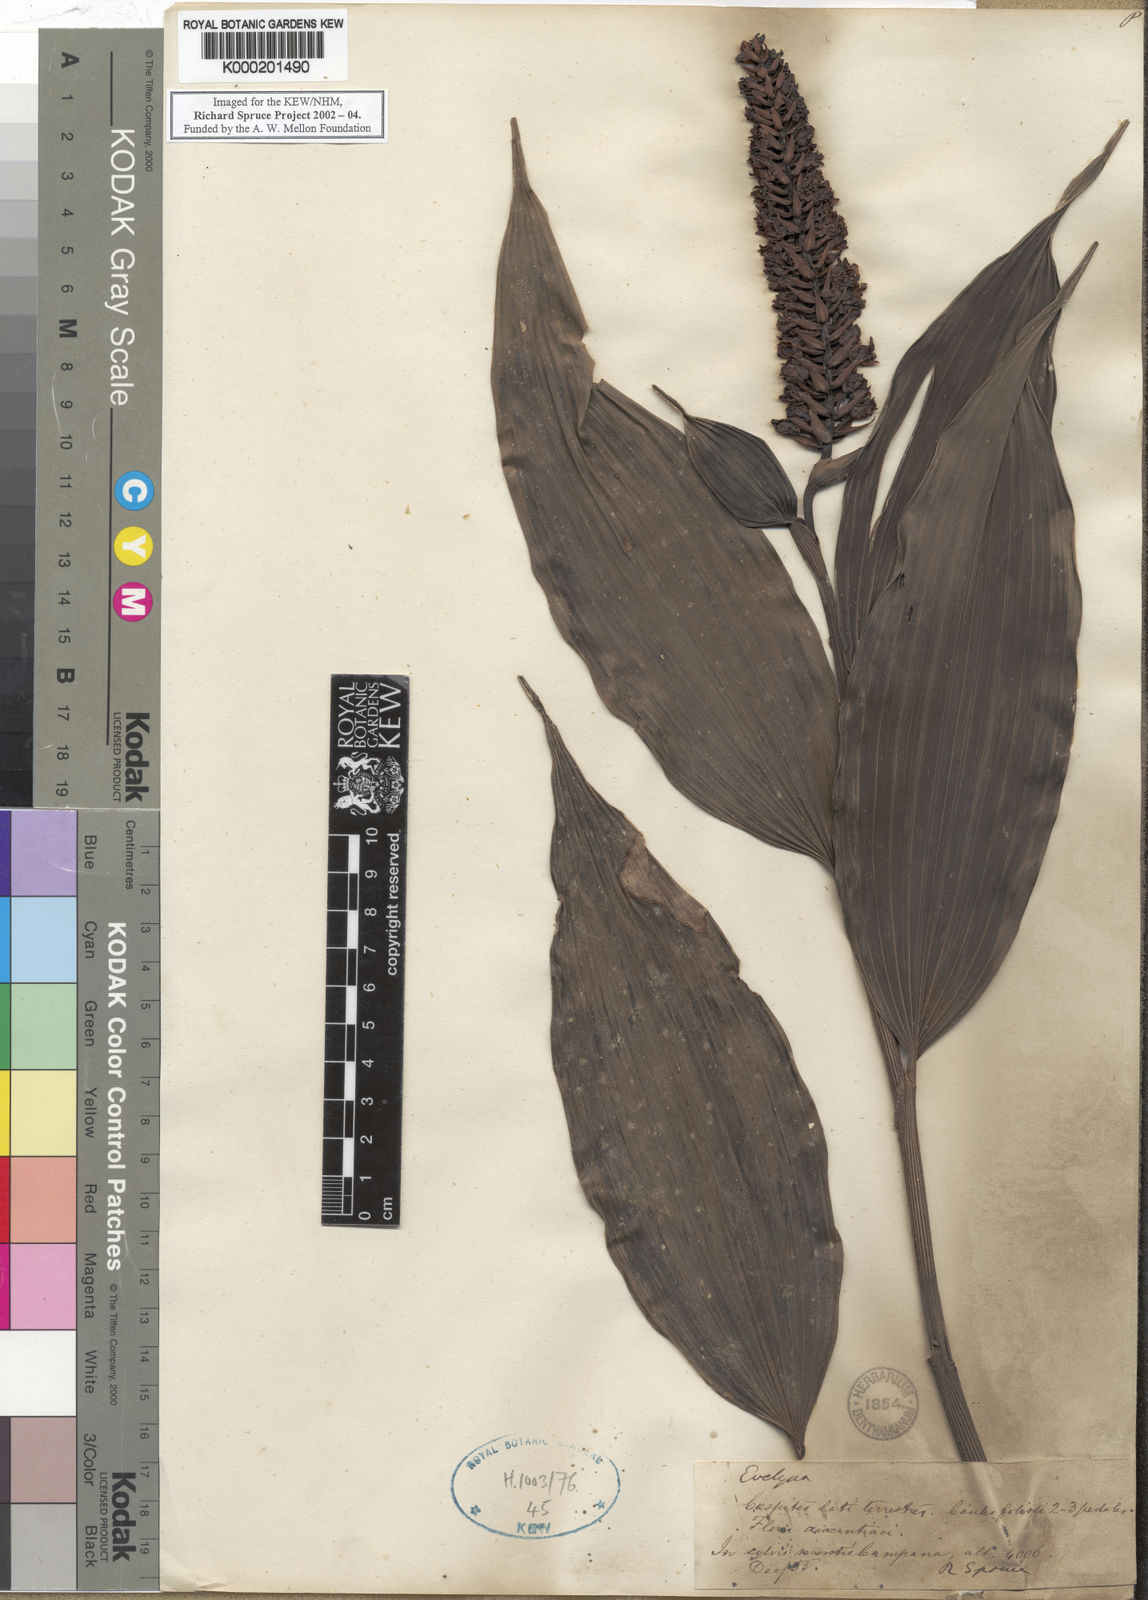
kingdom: Plantae
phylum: Tracheophyta
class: Liliopsida
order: Asparagales
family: Orchidaceae
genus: Elleanthus
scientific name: Elleanthus
